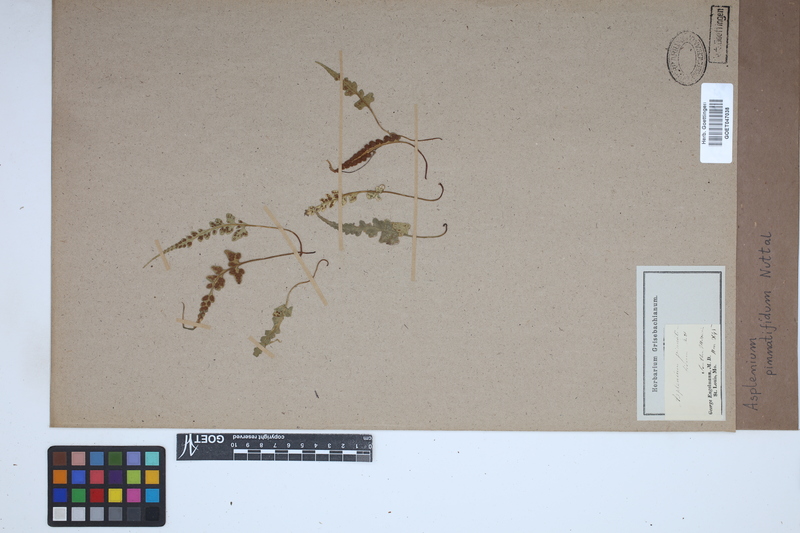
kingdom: Plantae
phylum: Tracheophyta
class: Polypodiopsida
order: Polypodiales
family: Aspleniaceae
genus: Asplenium
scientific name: Asplenium pinnatifidum
